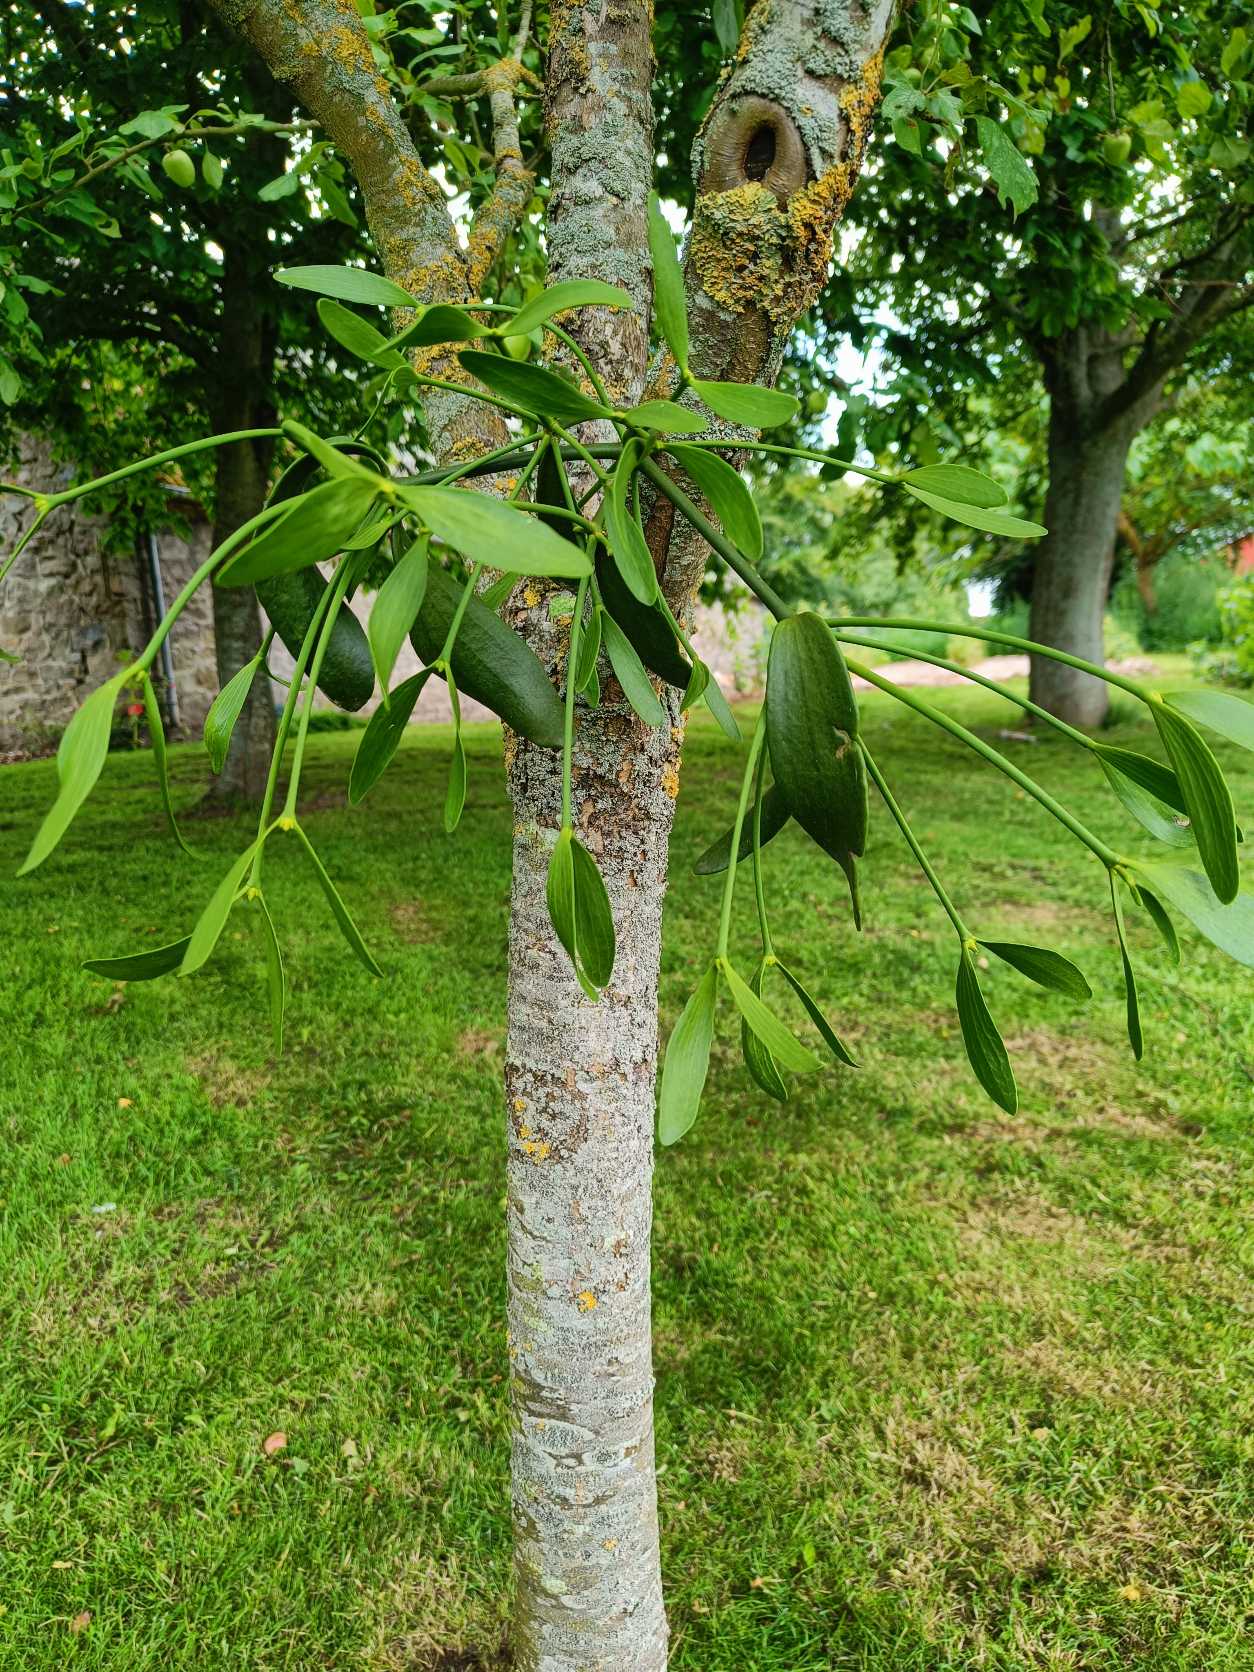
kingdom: Plantae
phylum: Tracheophyta
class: Magnoliopsida
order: Santalales
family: Viscaceae
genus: Viscum
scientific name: Viscum album
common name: Mistelten
